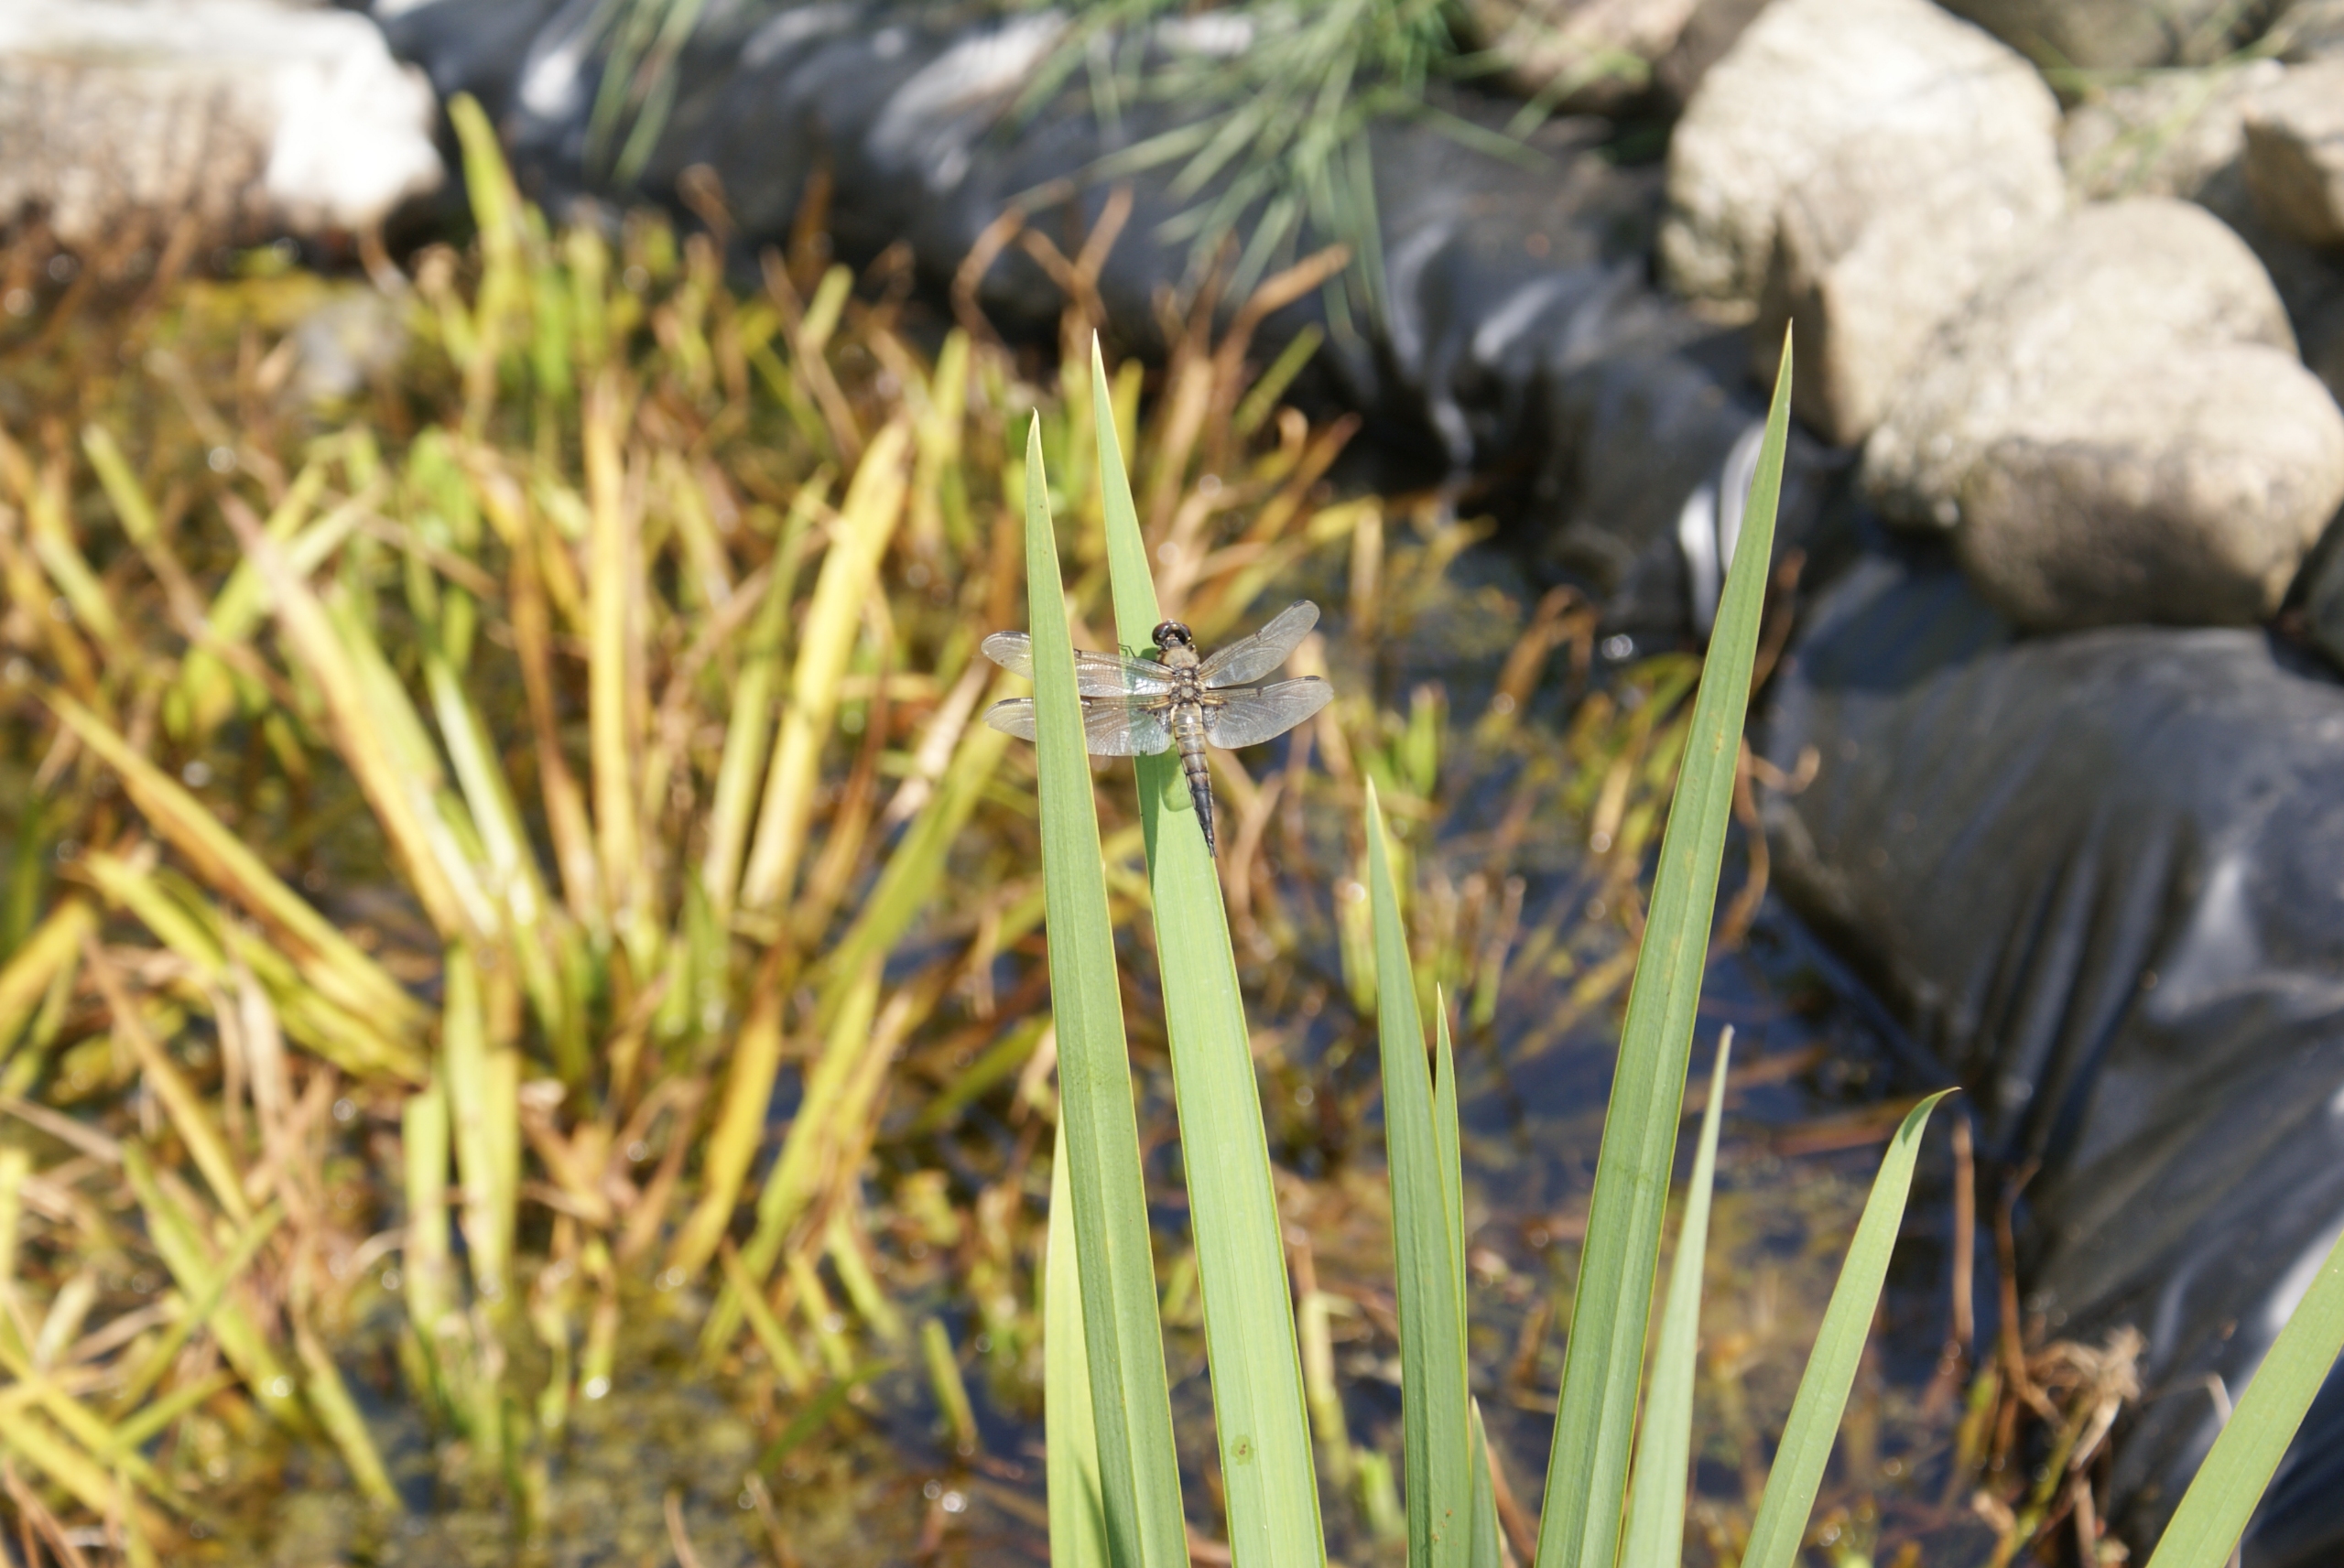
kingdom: Animalia
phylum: Arthropoda
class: Insecta
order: Odonata
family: Libellulidae
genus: Libellula
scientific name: Libellula quadrimaculata
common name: Fireplettet libel
